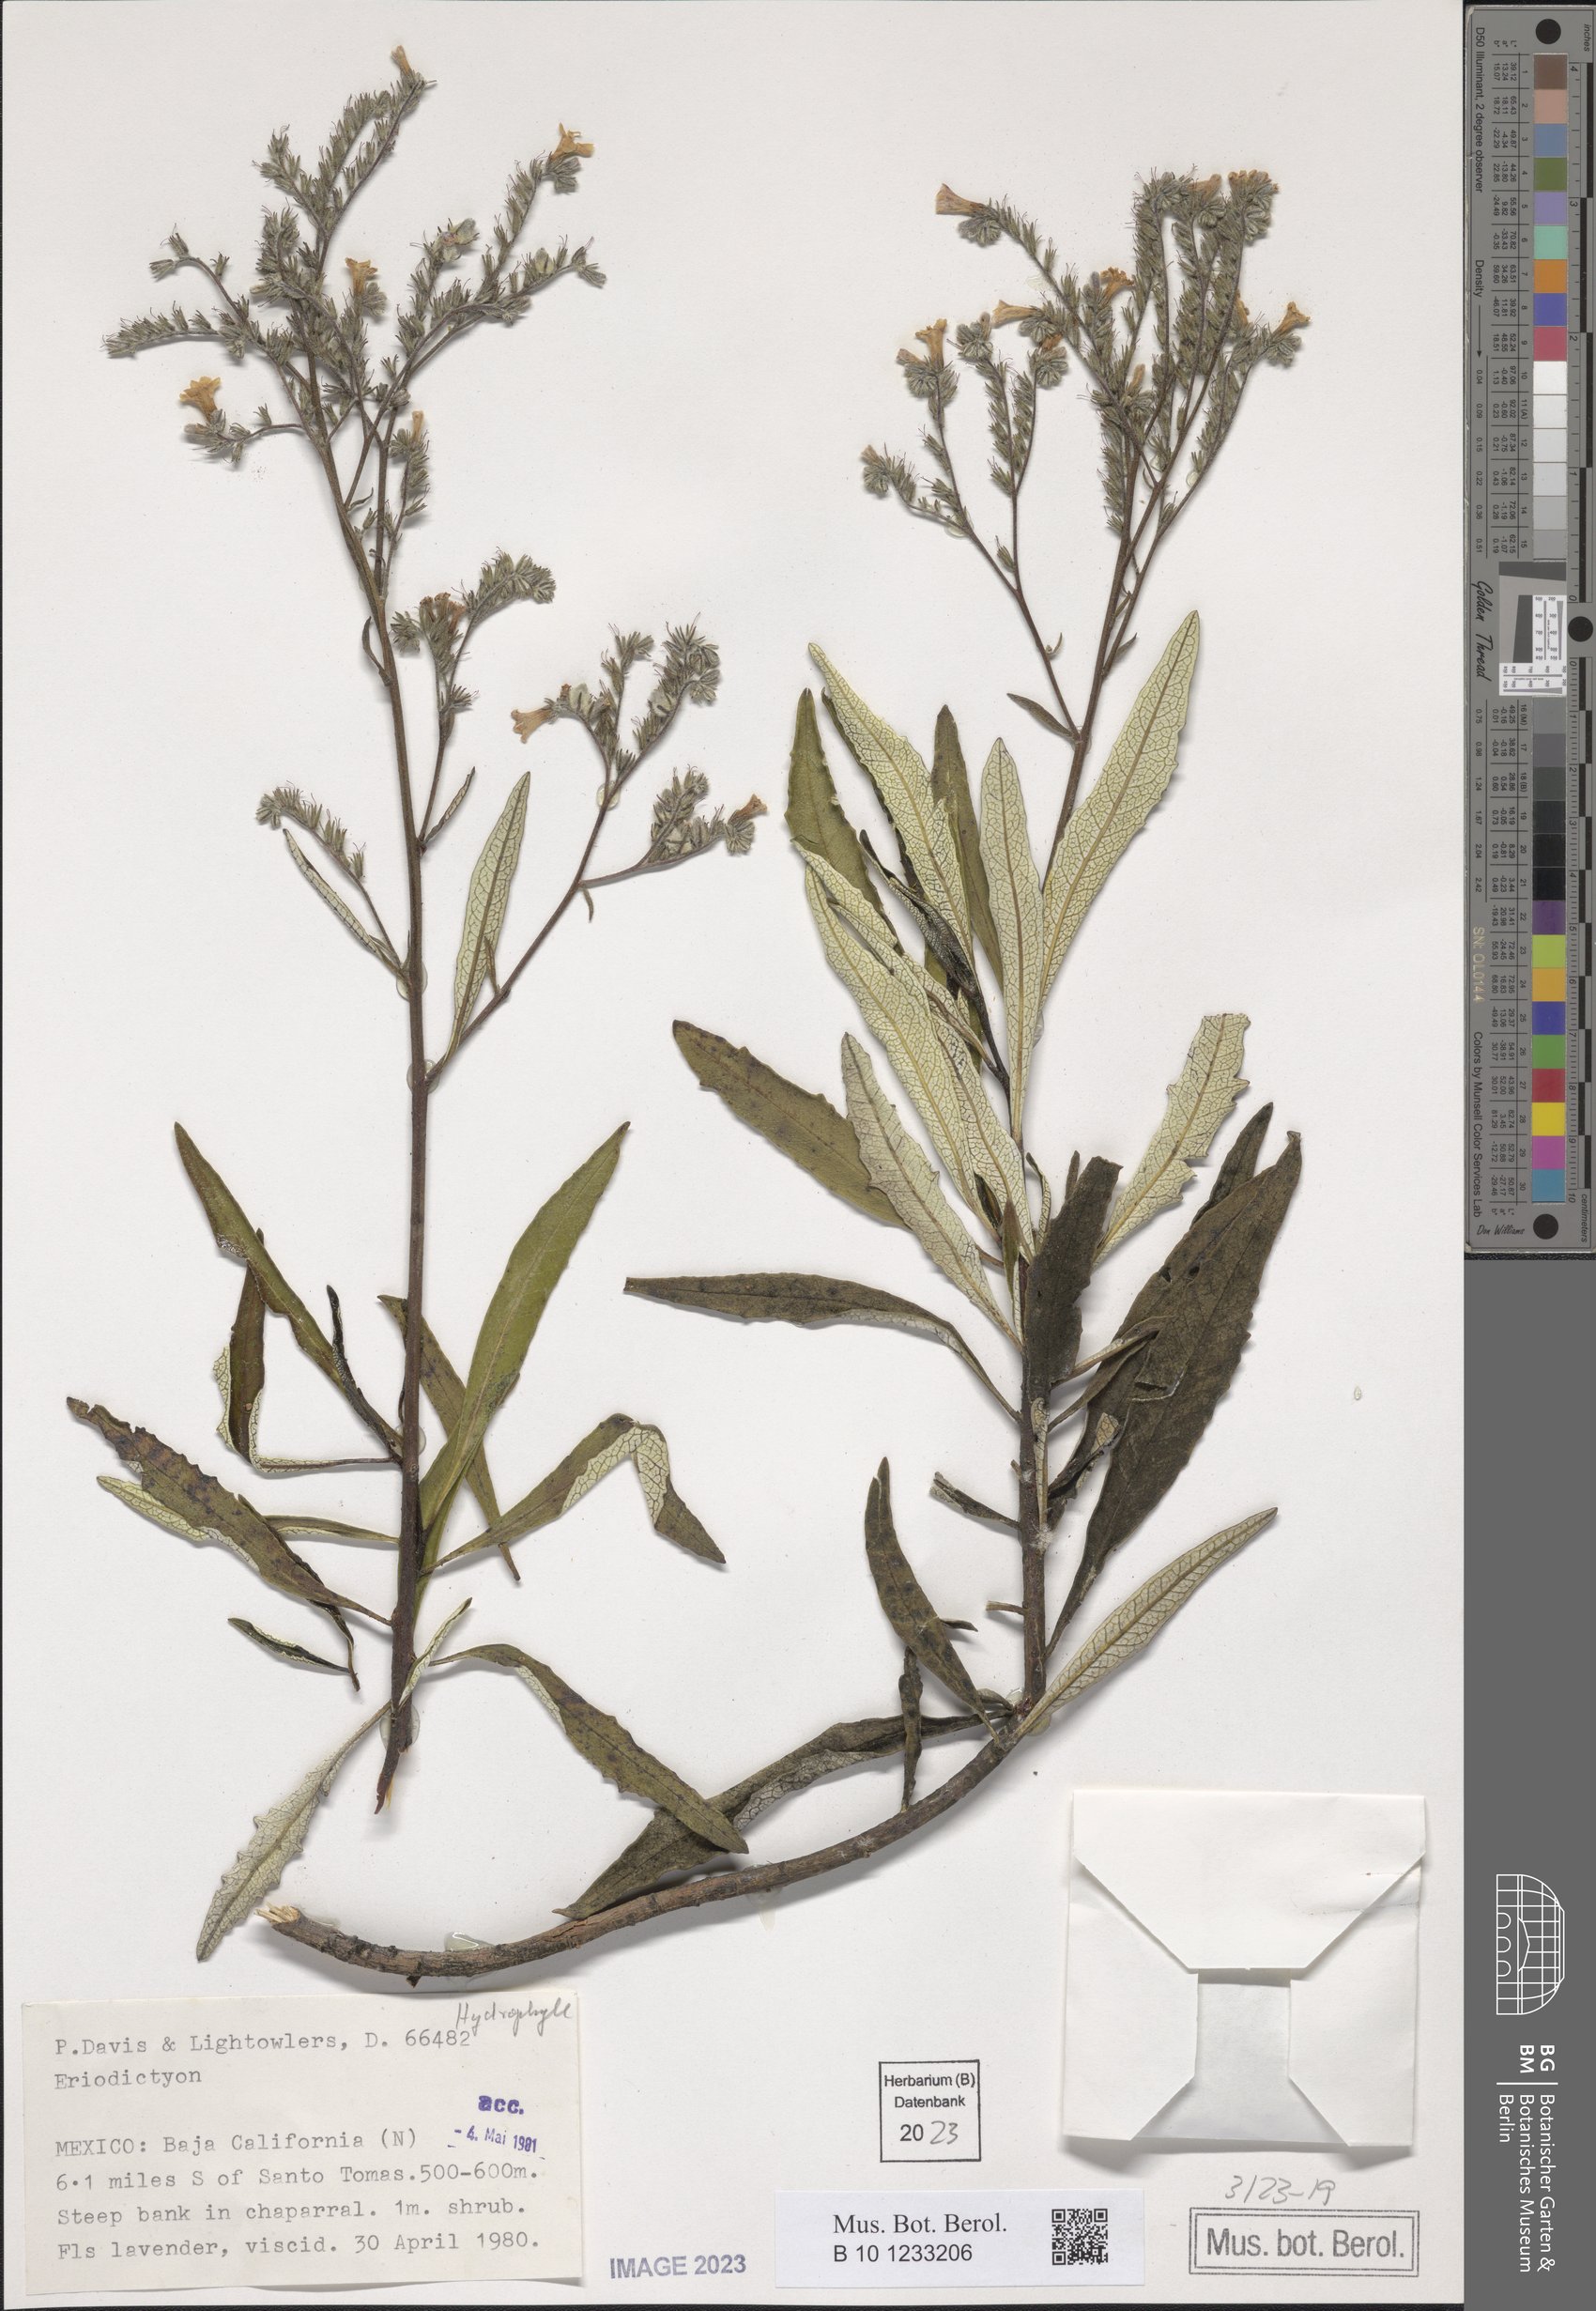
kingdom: Plantae
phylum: Tracheophyta
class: Magnoliopsida
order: Boraginales
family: Namaceae
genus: Eriodictyon
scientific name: Eriodictyon trichocalyx
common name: Hairy yerba-santa
